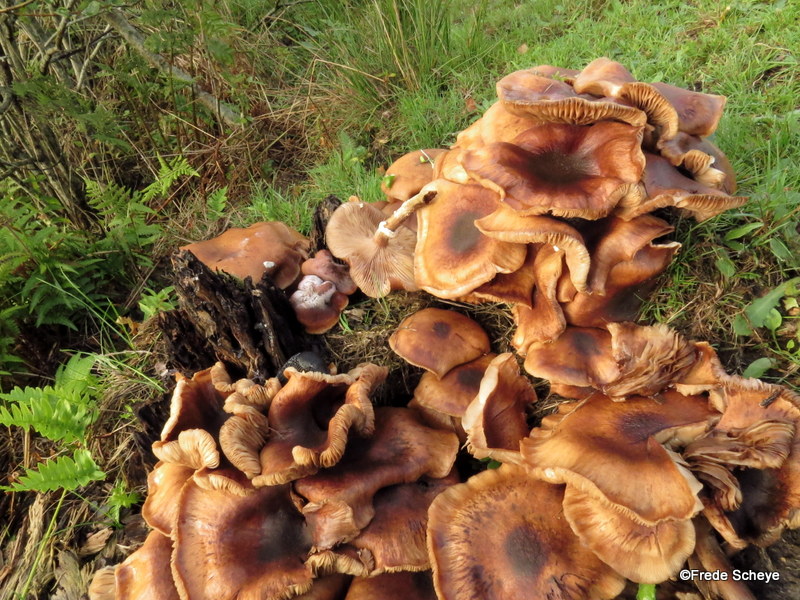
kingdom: Fungi
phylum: Basidiomycota
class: Agaricomycetes
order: Agaricales
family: Physalacriaceae
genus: Armillaria
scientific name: Armillaria lutea
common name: køllestokket honningsvamp
